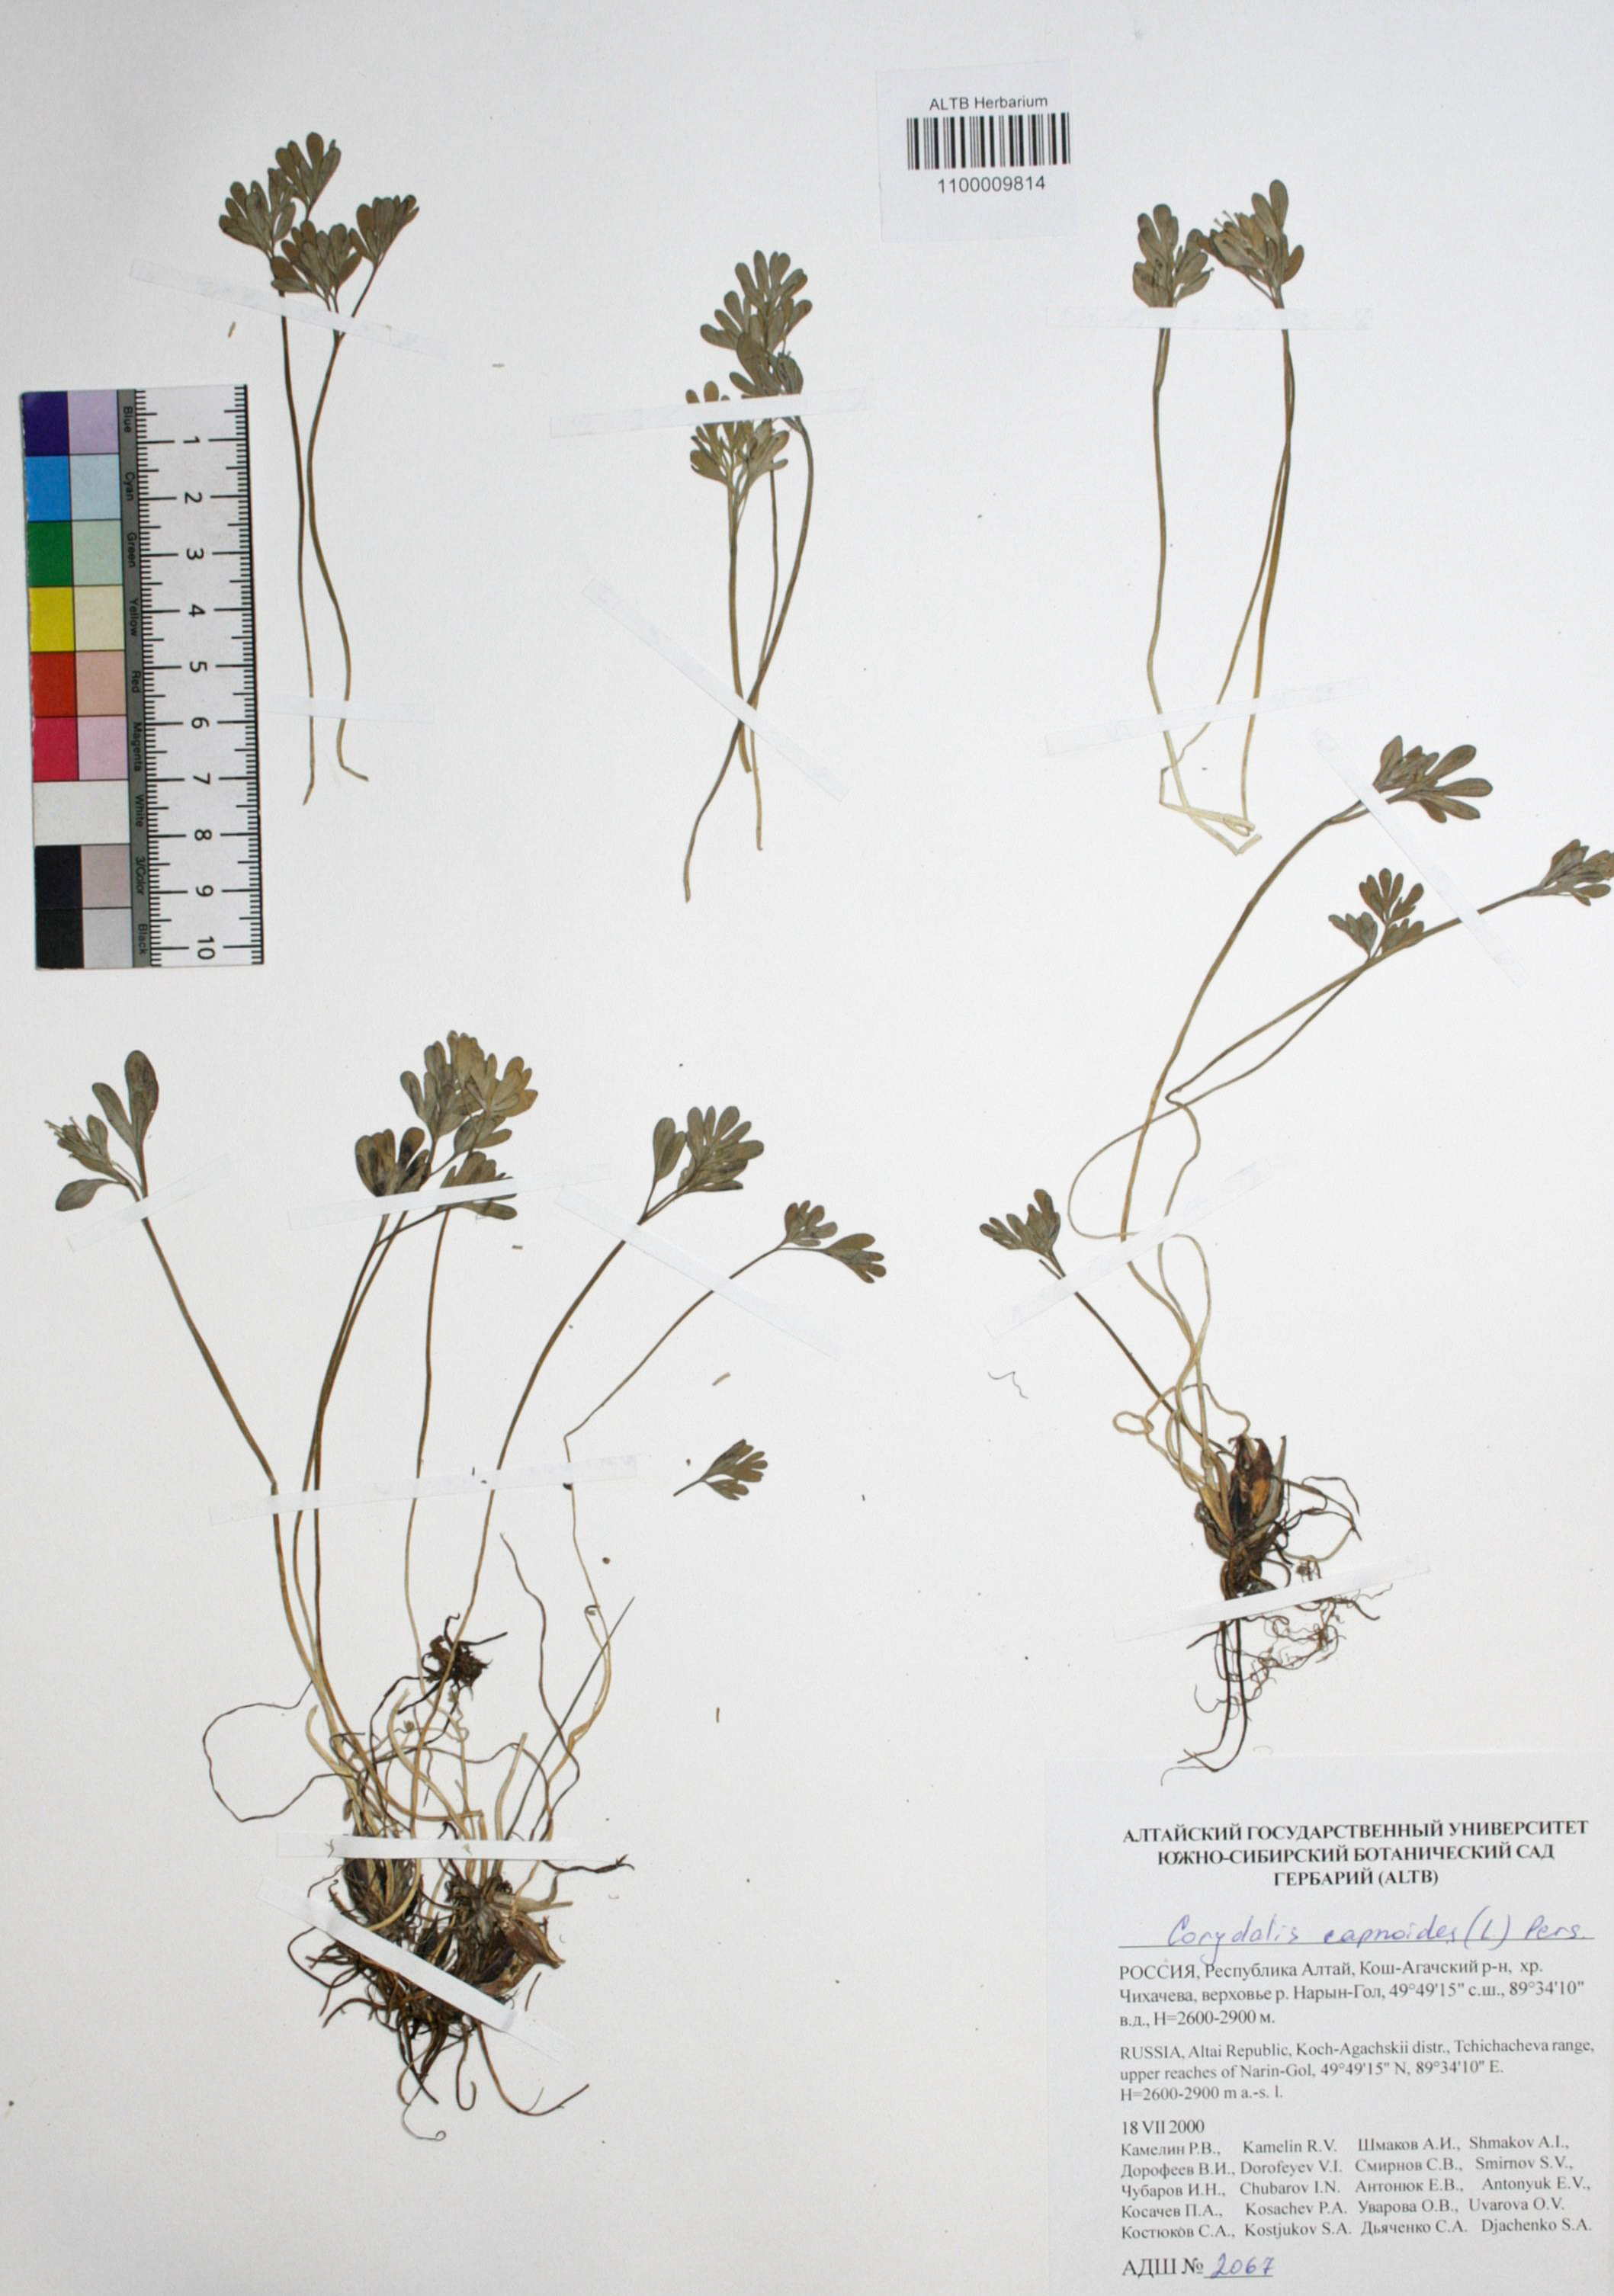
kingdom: Plantae
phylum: Tracheophyta
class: Magnoliopsida
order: Ranunculales
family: Papaveraceae
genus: Corydalis
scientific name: Corydalis capnoides
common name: Beaked corydalis
